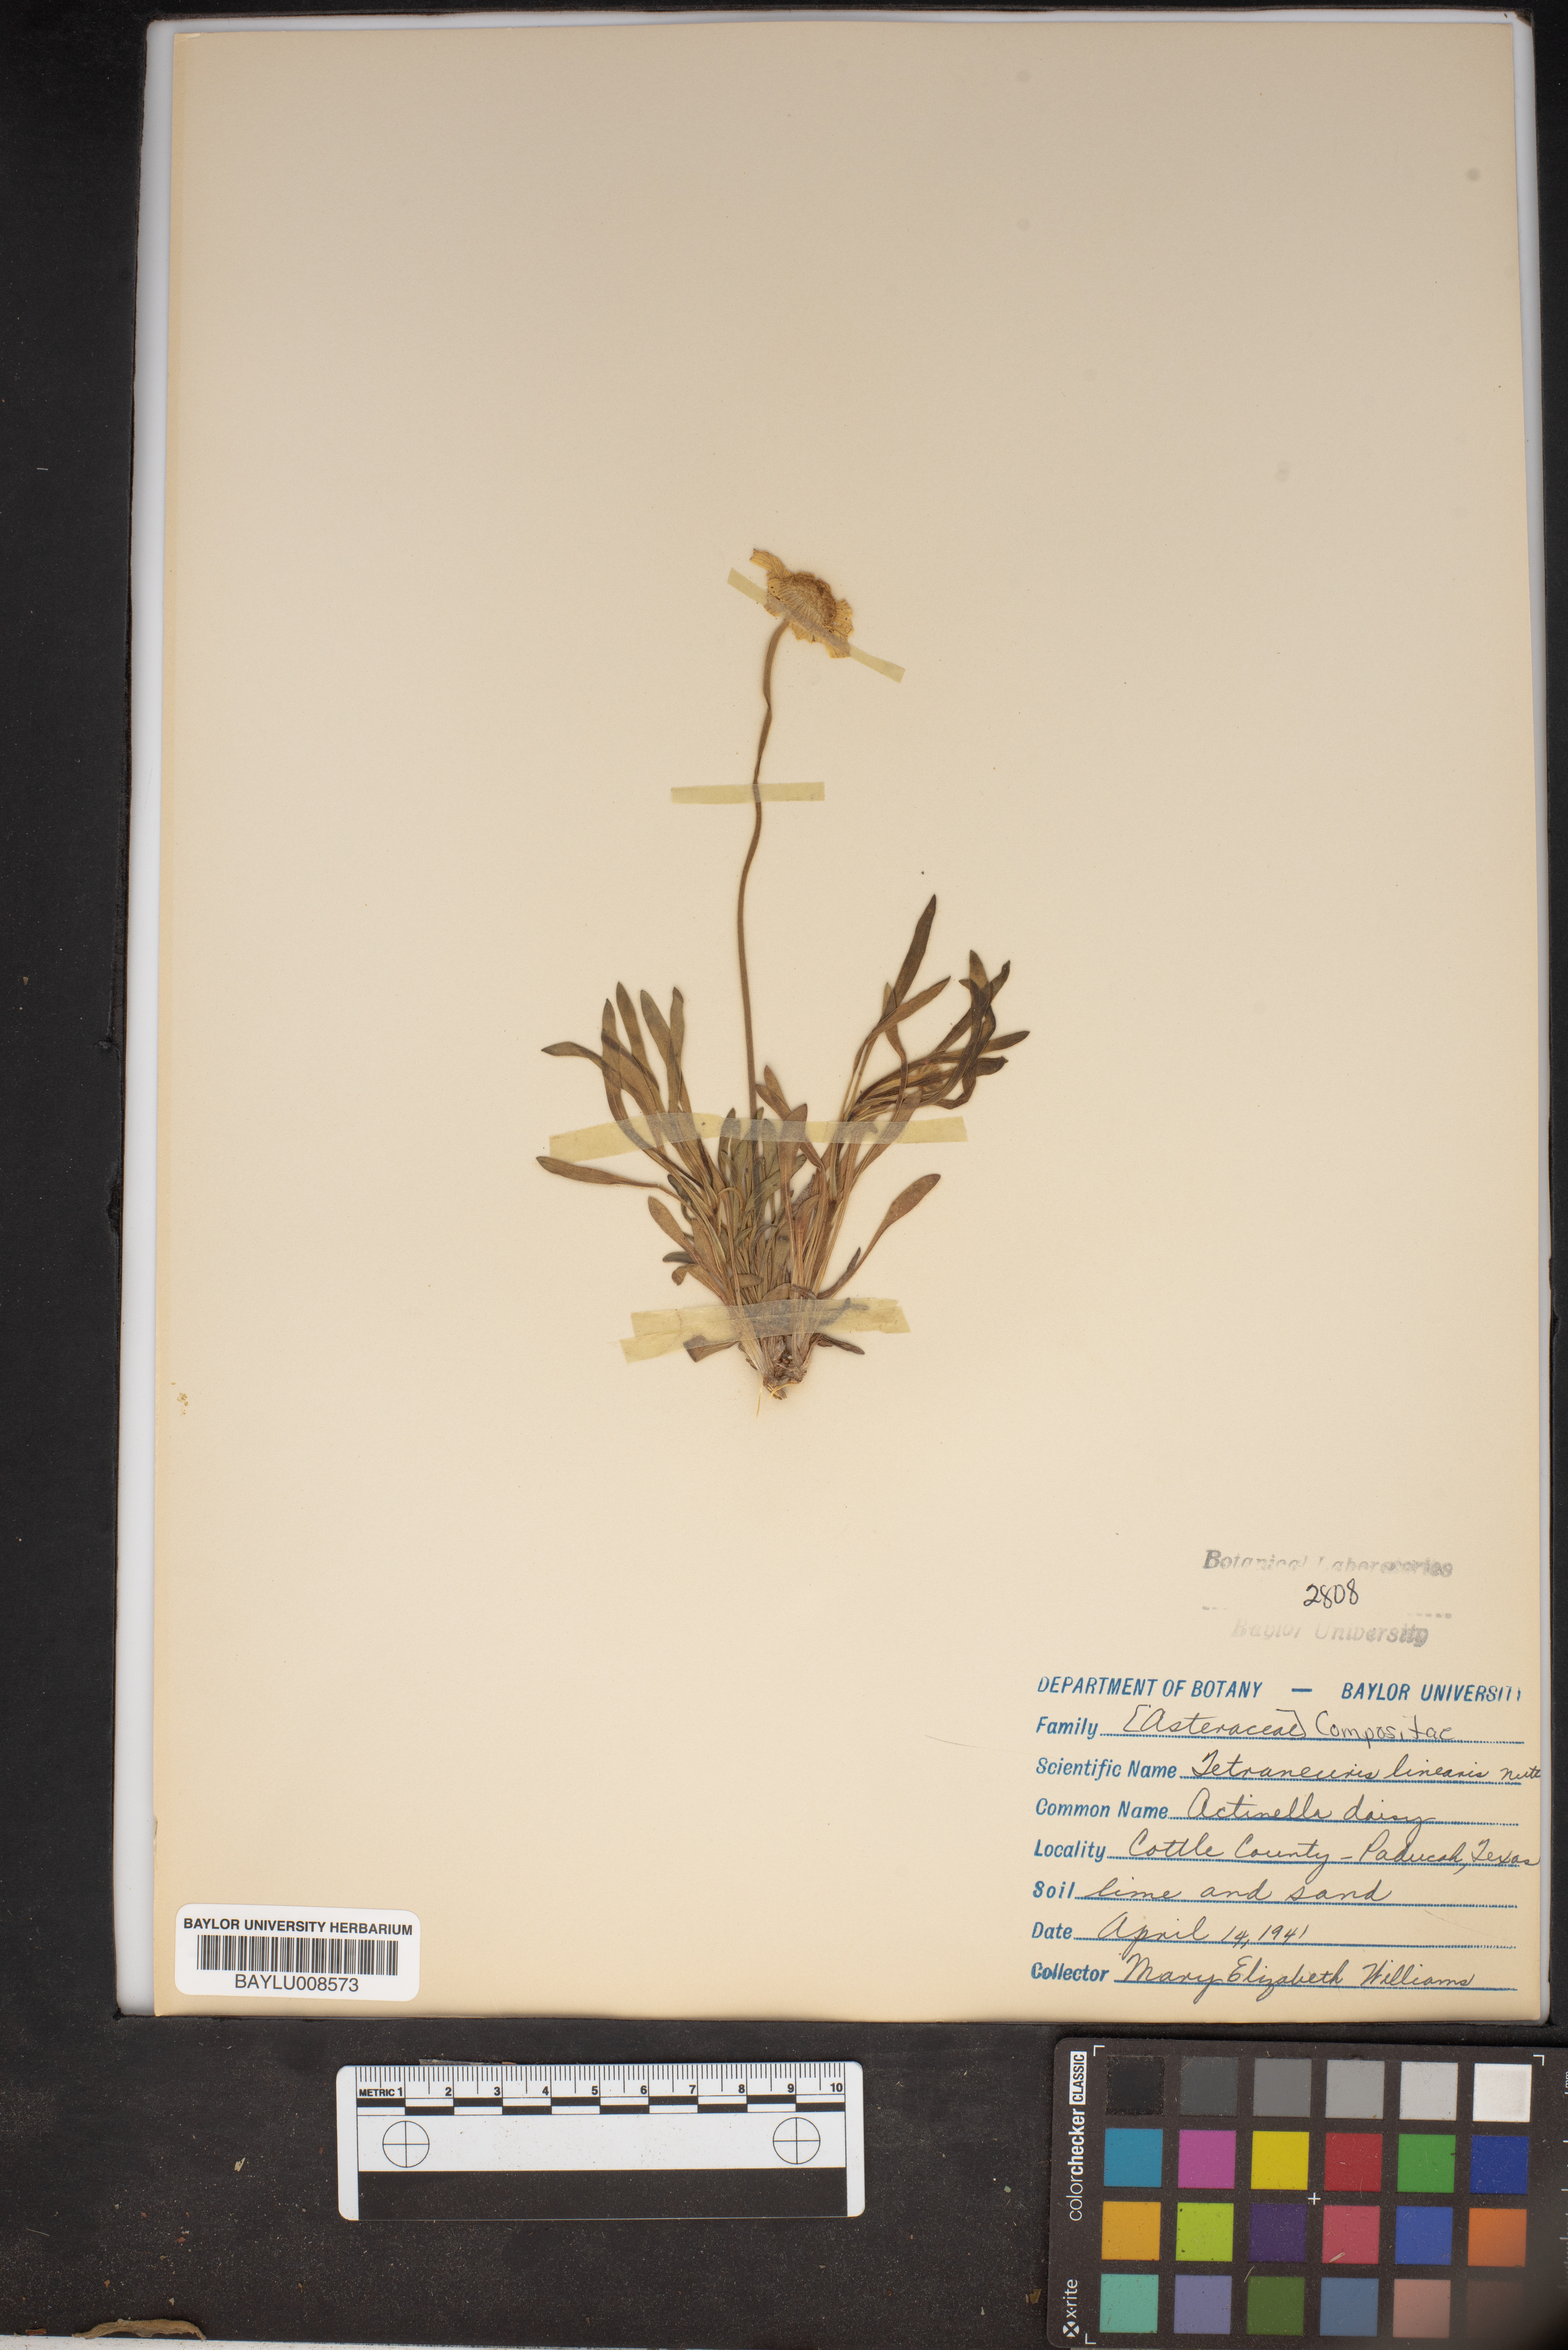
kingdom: Plantae
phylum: Tracheophyta
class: Magnoliopsida
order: Asterales
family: Asteraceae
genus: Tetraneuris
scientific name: Tetraneuris scaposa
